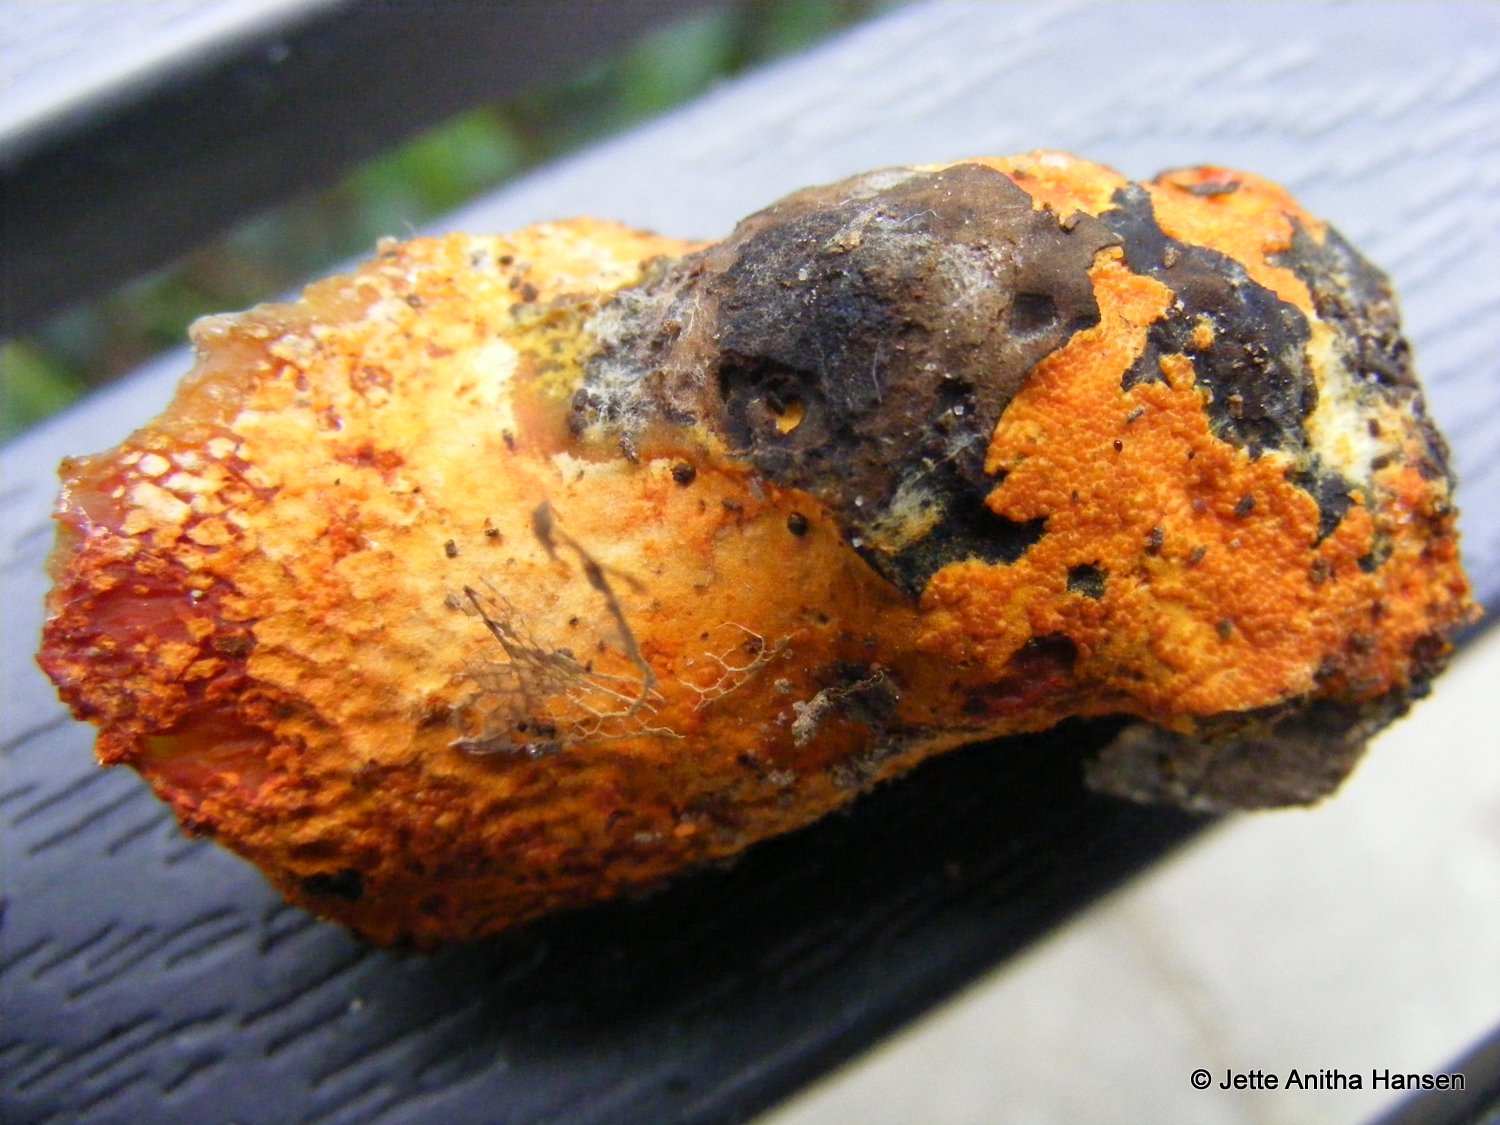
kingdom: Fungi
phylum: Ascomycota
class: Sordariomycetes
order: Hypocreales
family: Hypocreaceae
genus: Hypomyces
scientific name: Hypomyces aurantius
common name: almindelig snylteskorpe
